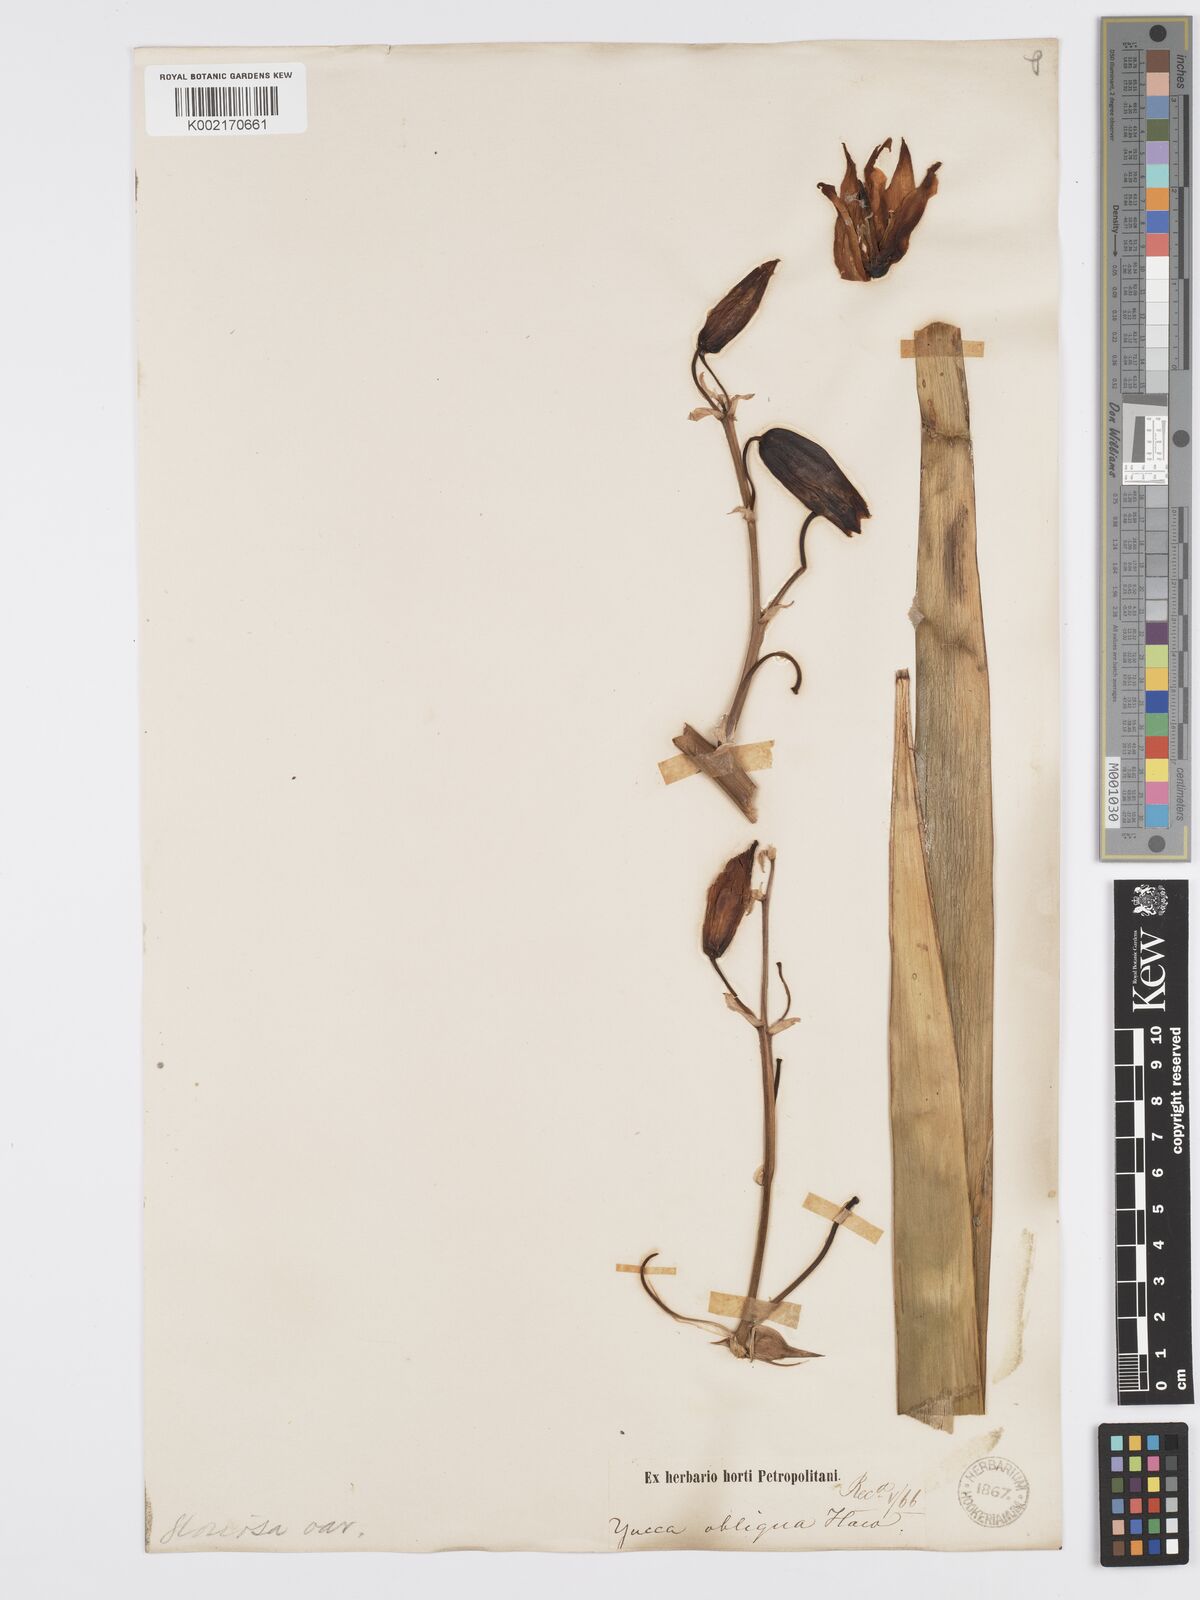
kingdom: Plantae
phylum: Tracheophyta
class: Liliopsida
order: Asparagales
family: Asparagaceae
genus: Yucca
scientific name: Yucca gloriosa
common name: Spanish-dagger
